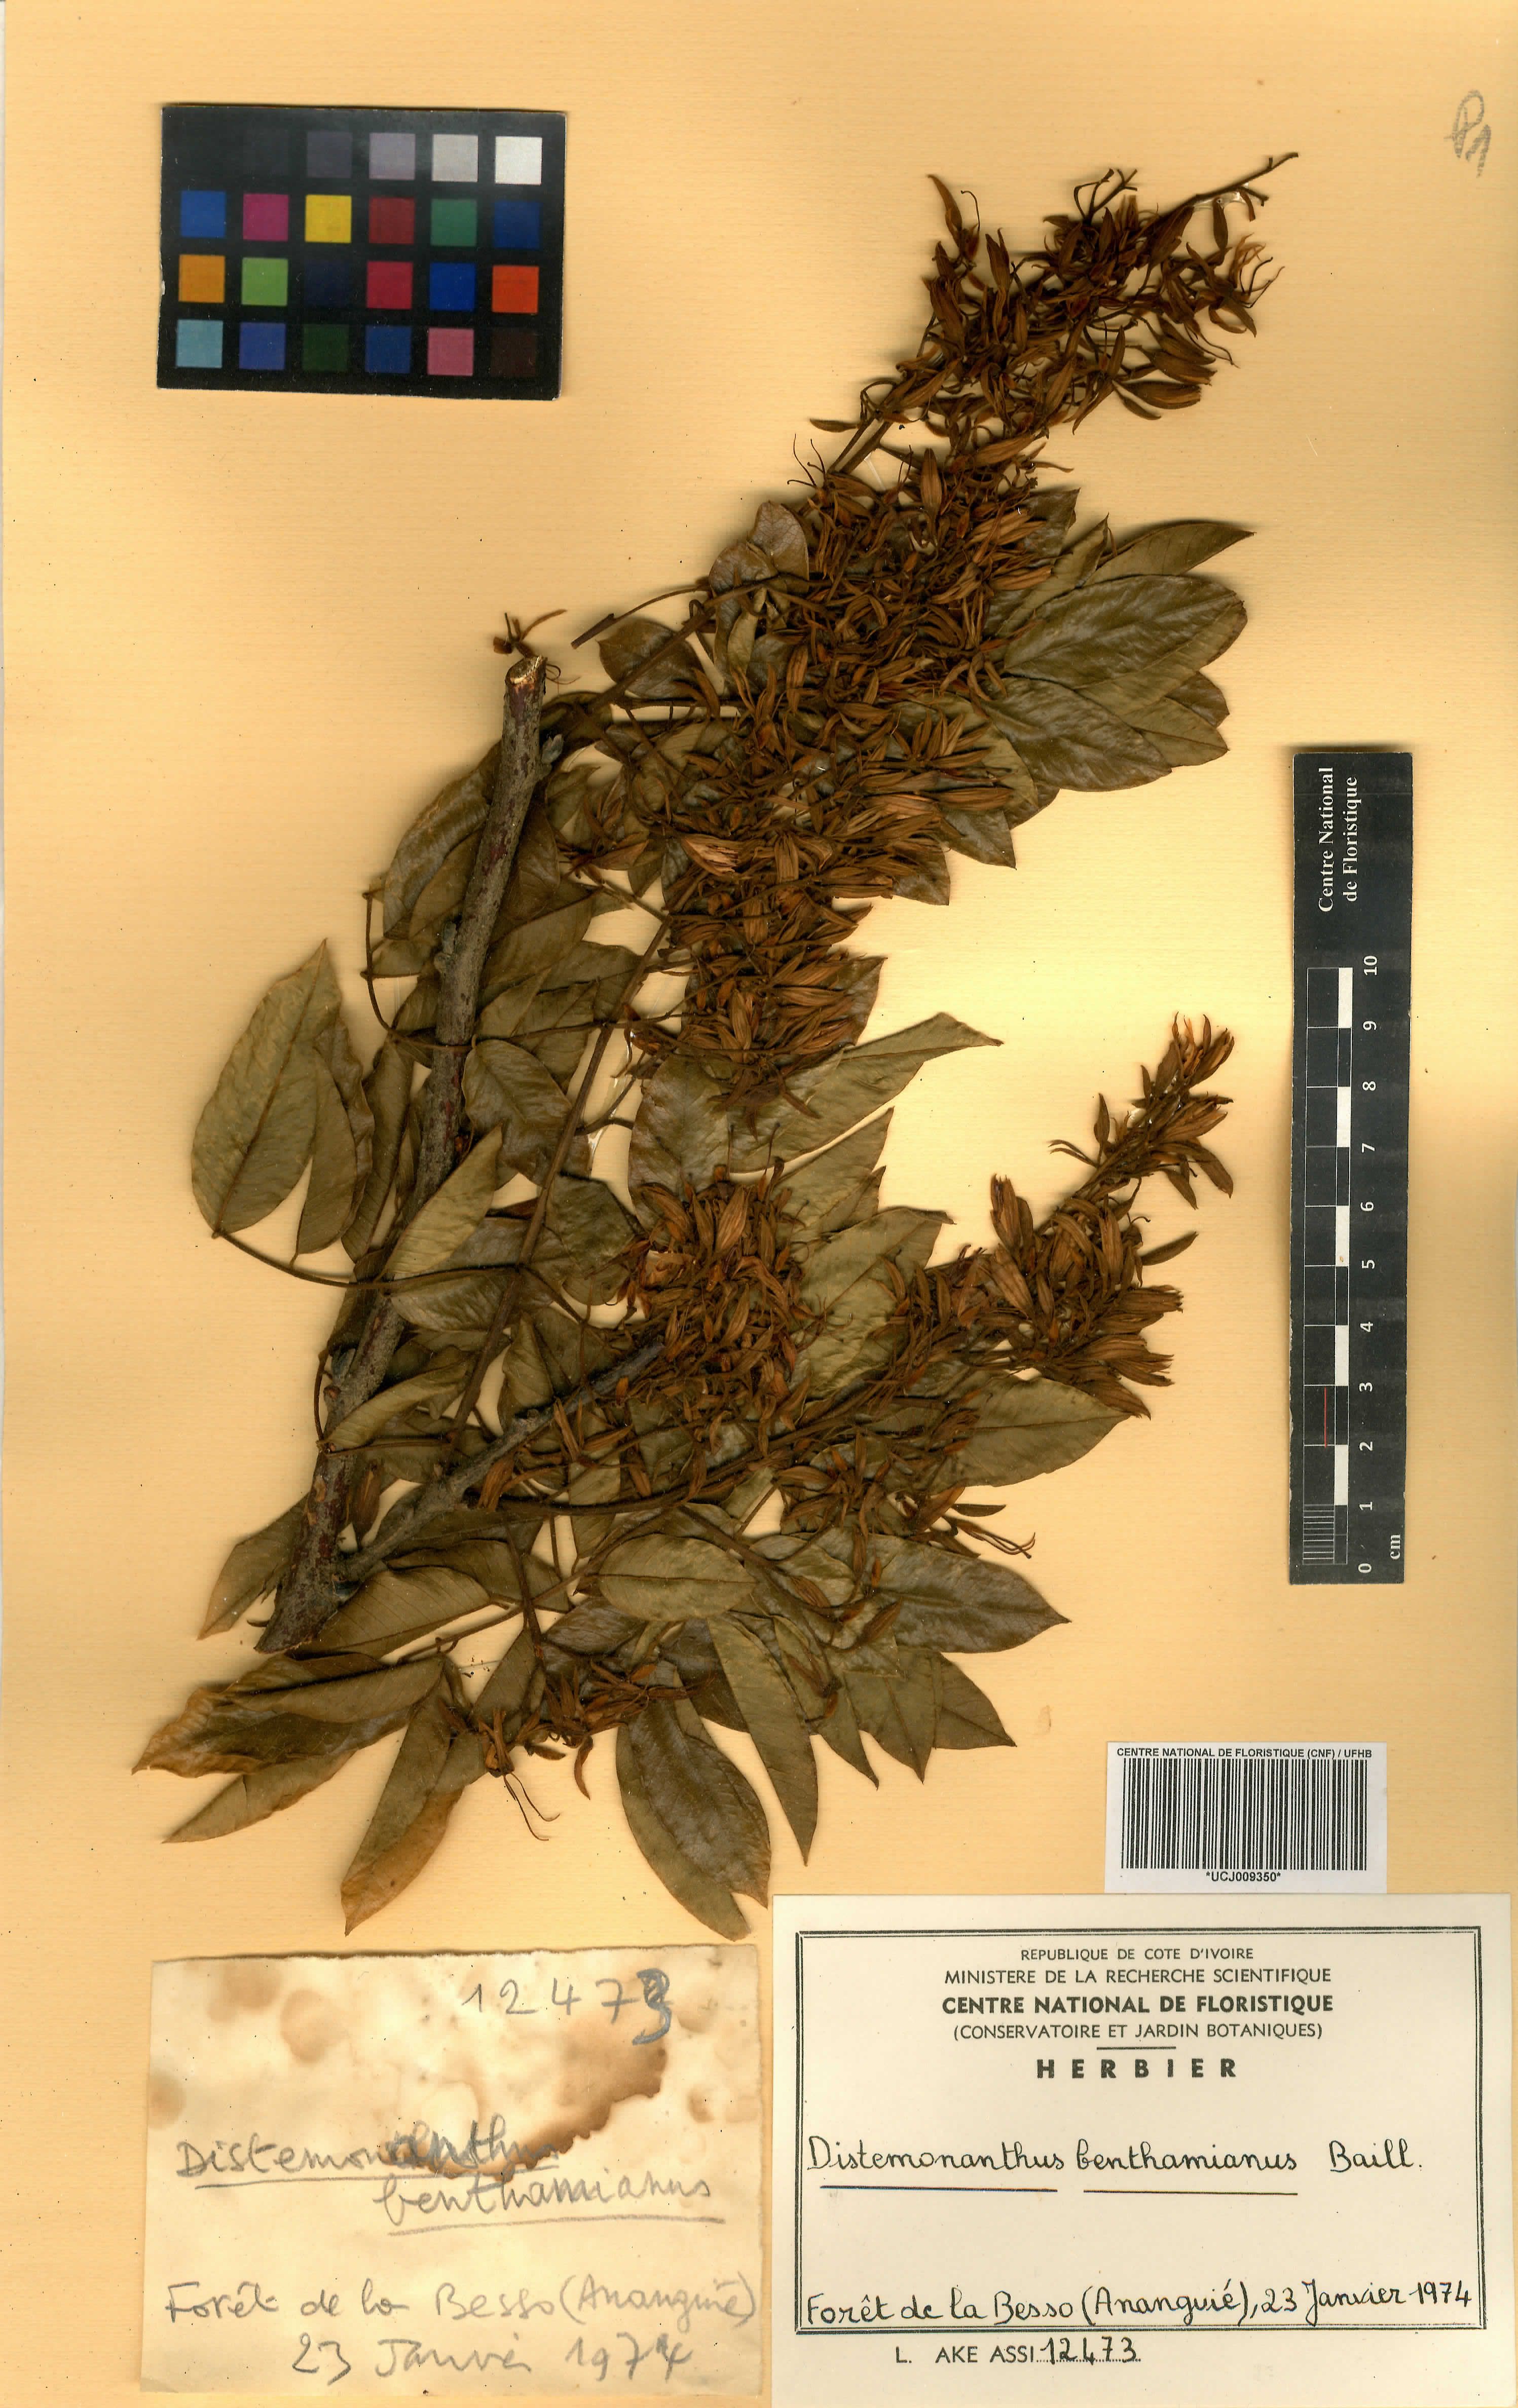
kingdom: Plantae
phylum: Tracheophyta
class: Magnoliopsida
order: Fabales
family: Fabaceae
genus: Distemonanthus
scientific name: Distemonanthus benthamianus
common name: Yellow satinwood
